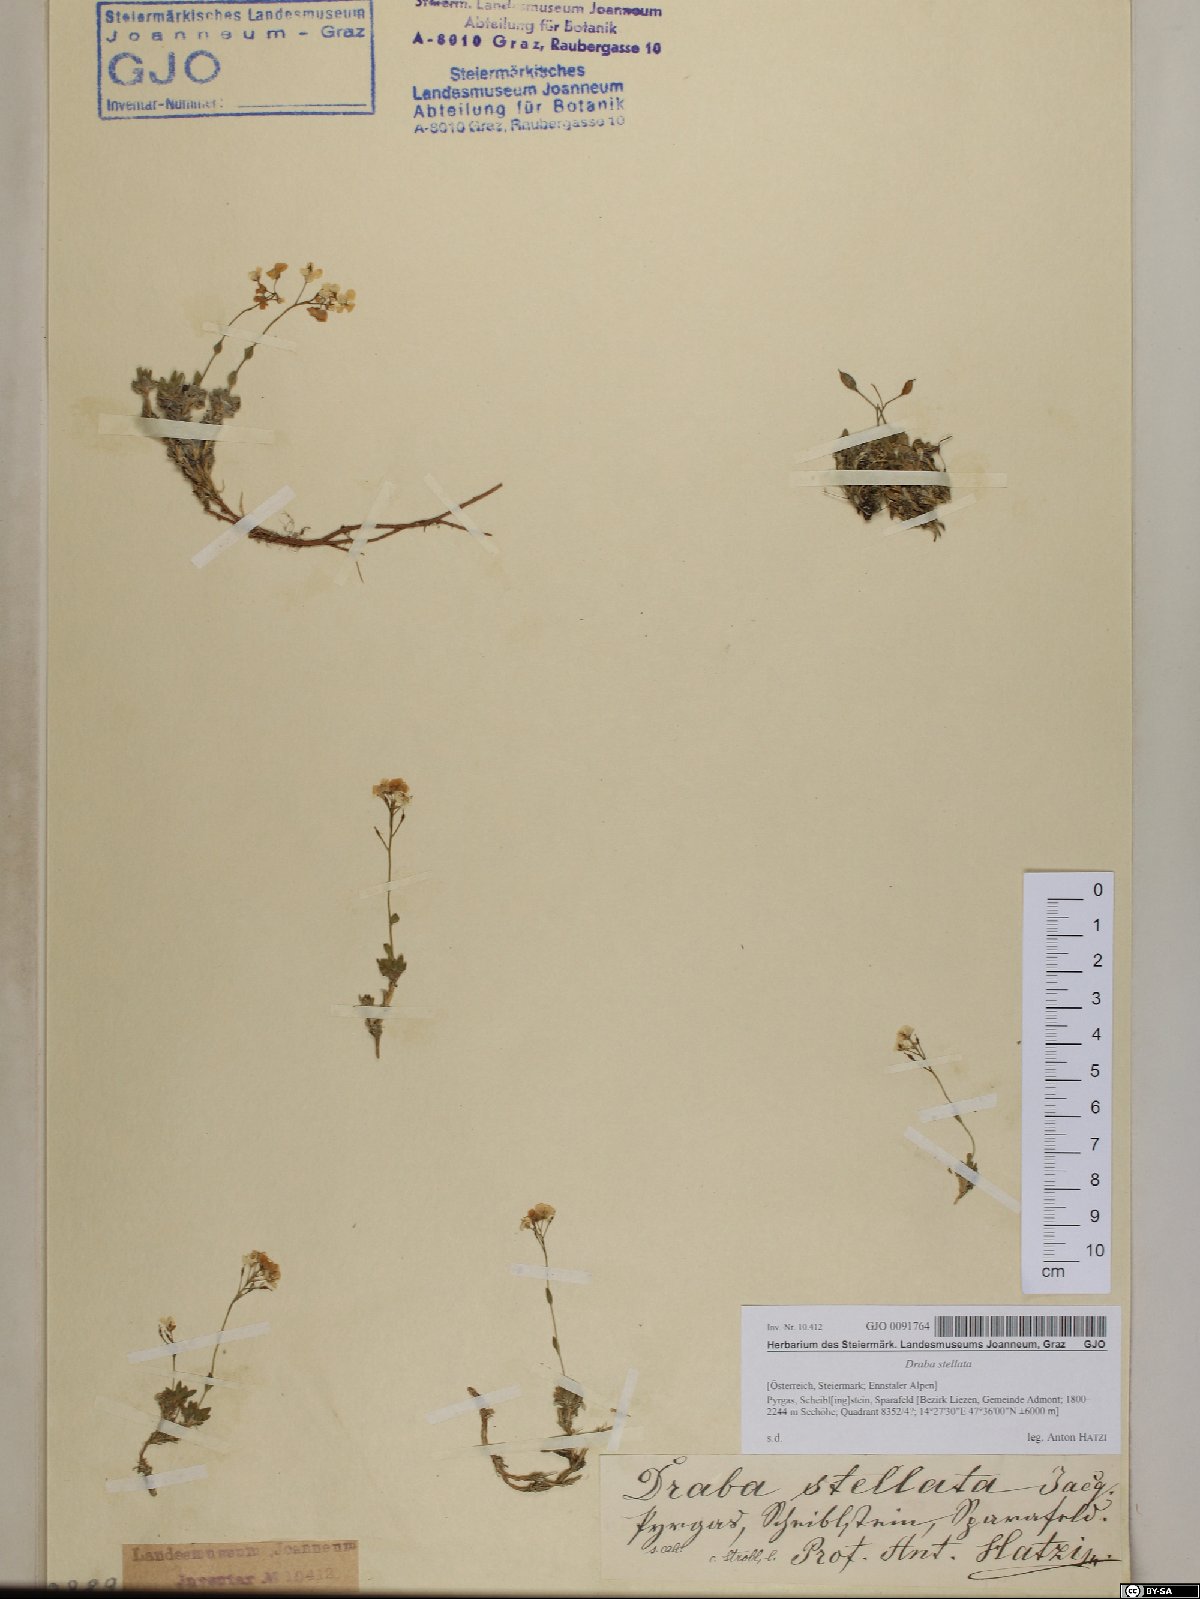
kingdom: Plantae
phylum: Tracheophyta
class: Magnoliopsida
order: Brassicales
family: Brassicaceae
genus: Draba
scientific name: Draba stellata
